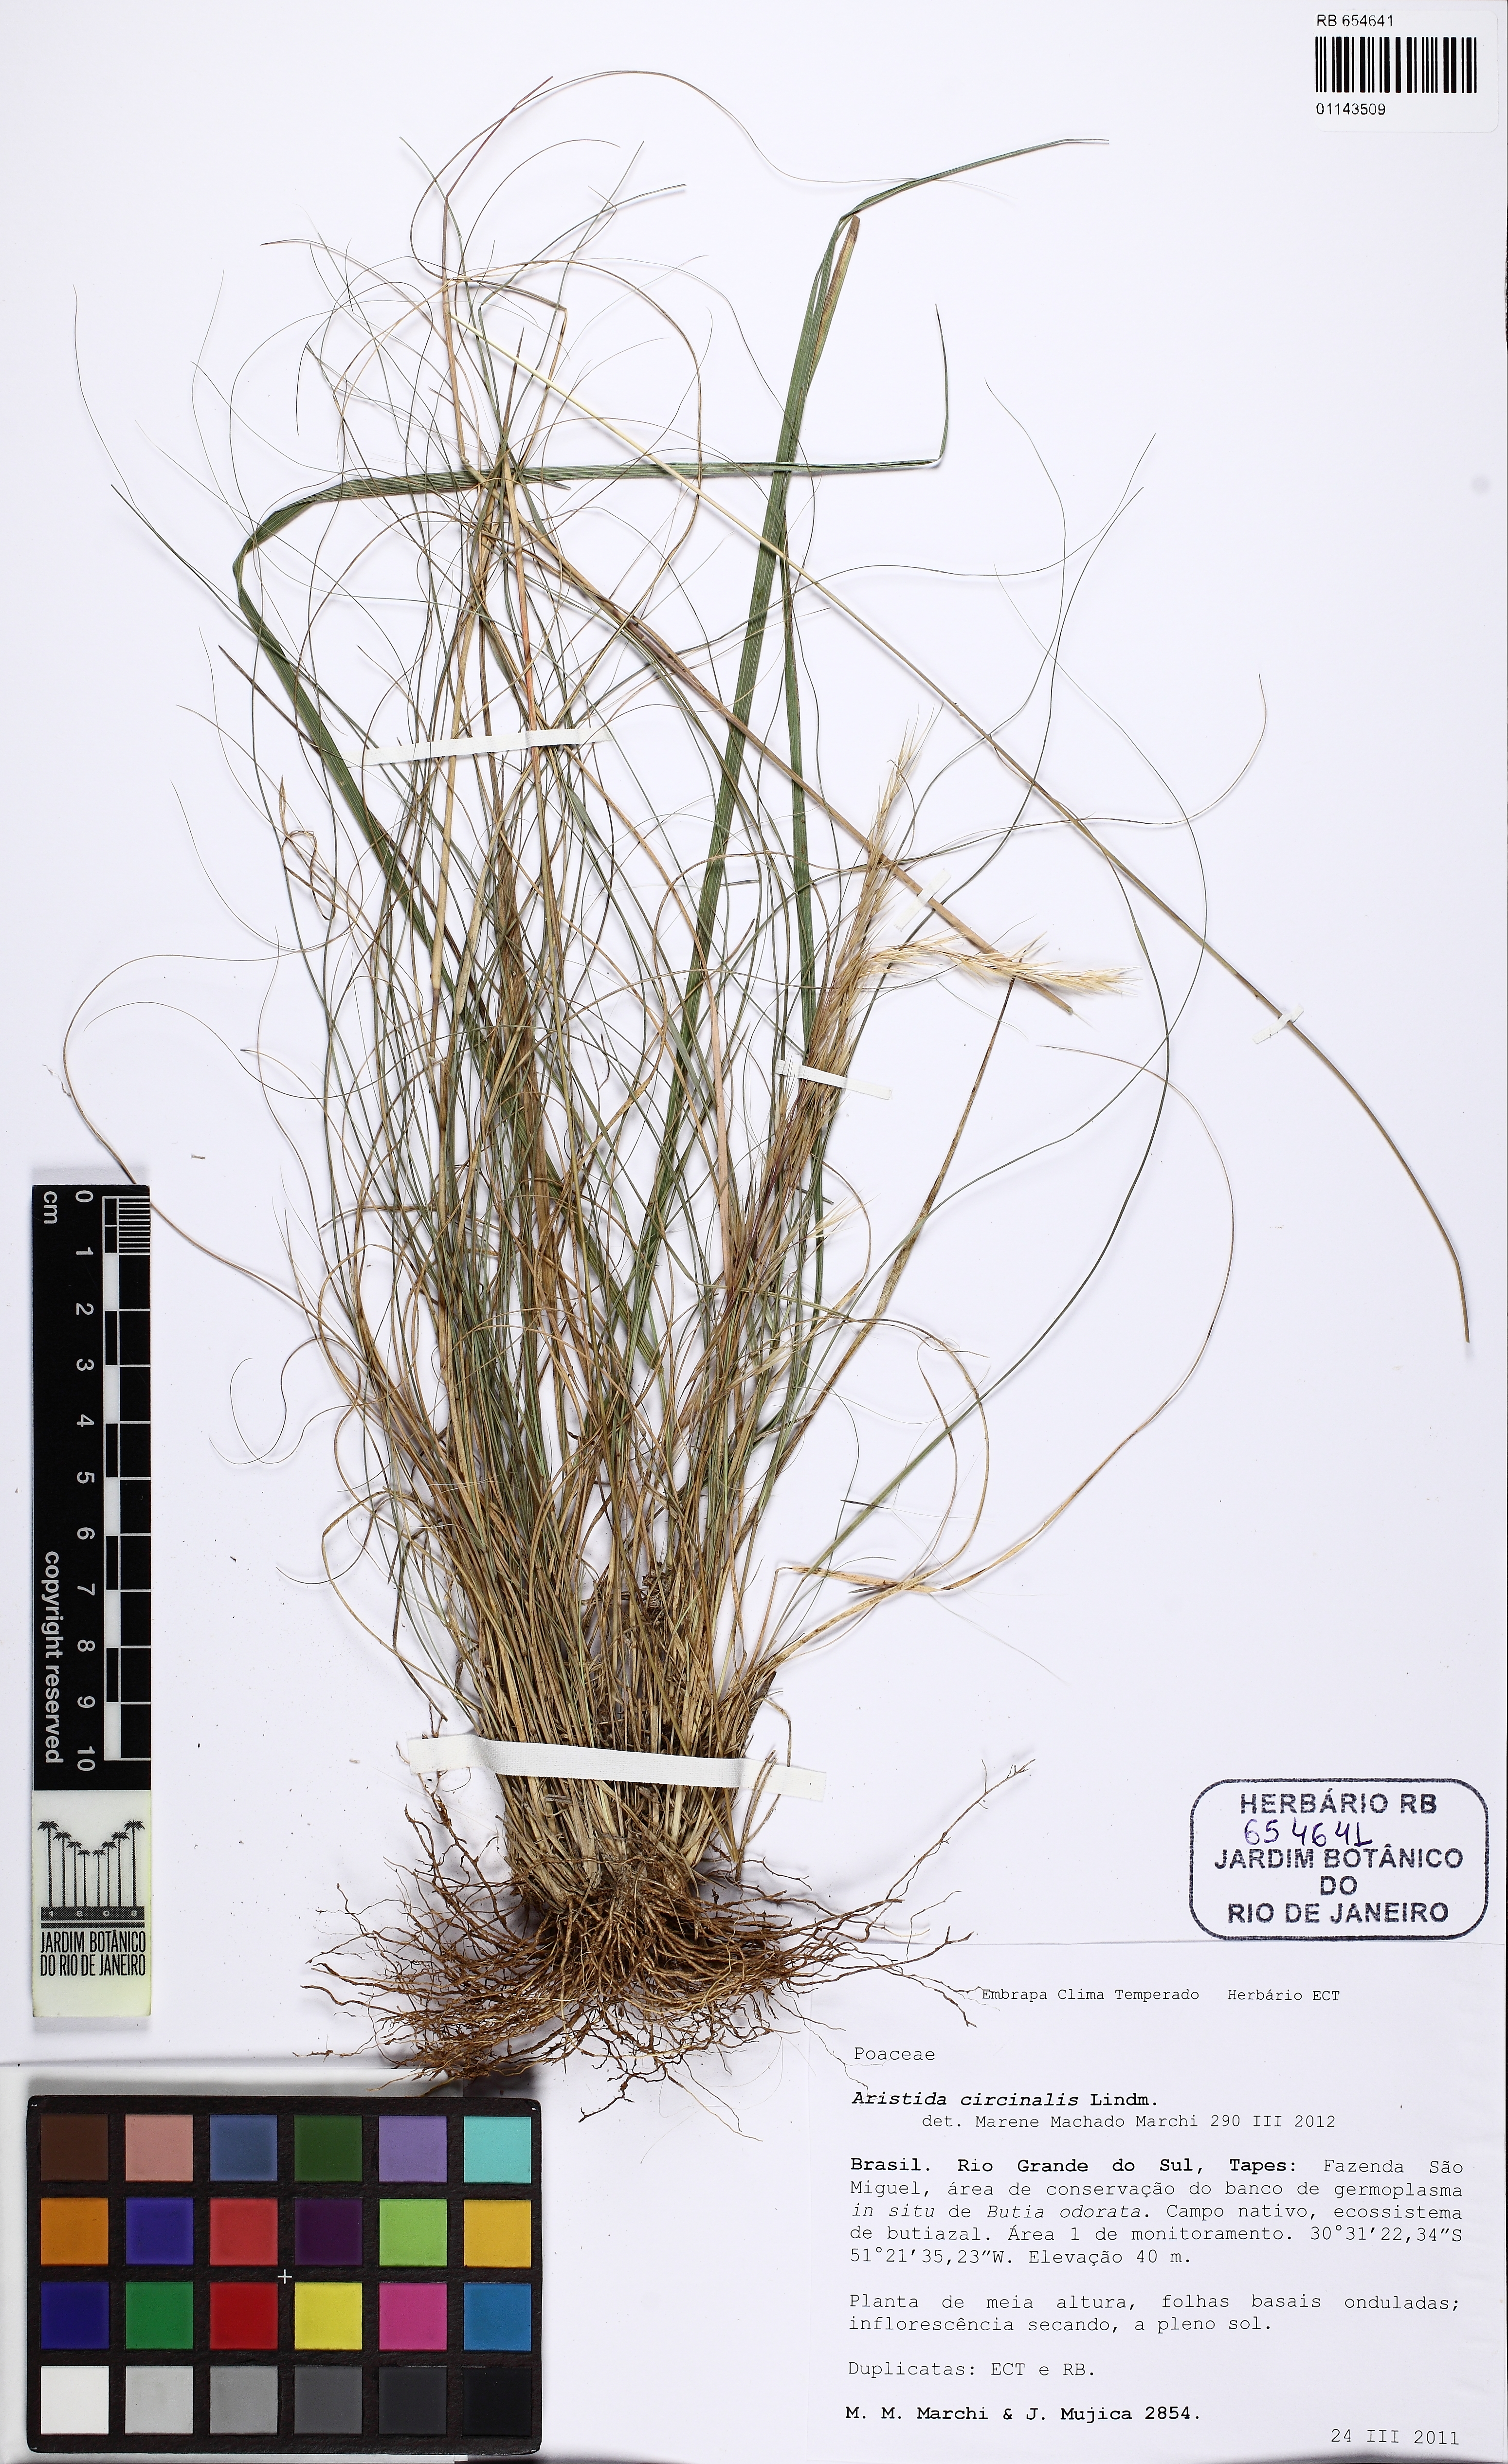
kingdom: Plantae
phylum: Tracheophyta
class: Liliopsida
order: Poales
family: Poaceae
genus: Aristida
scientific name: Aristida circinalis
